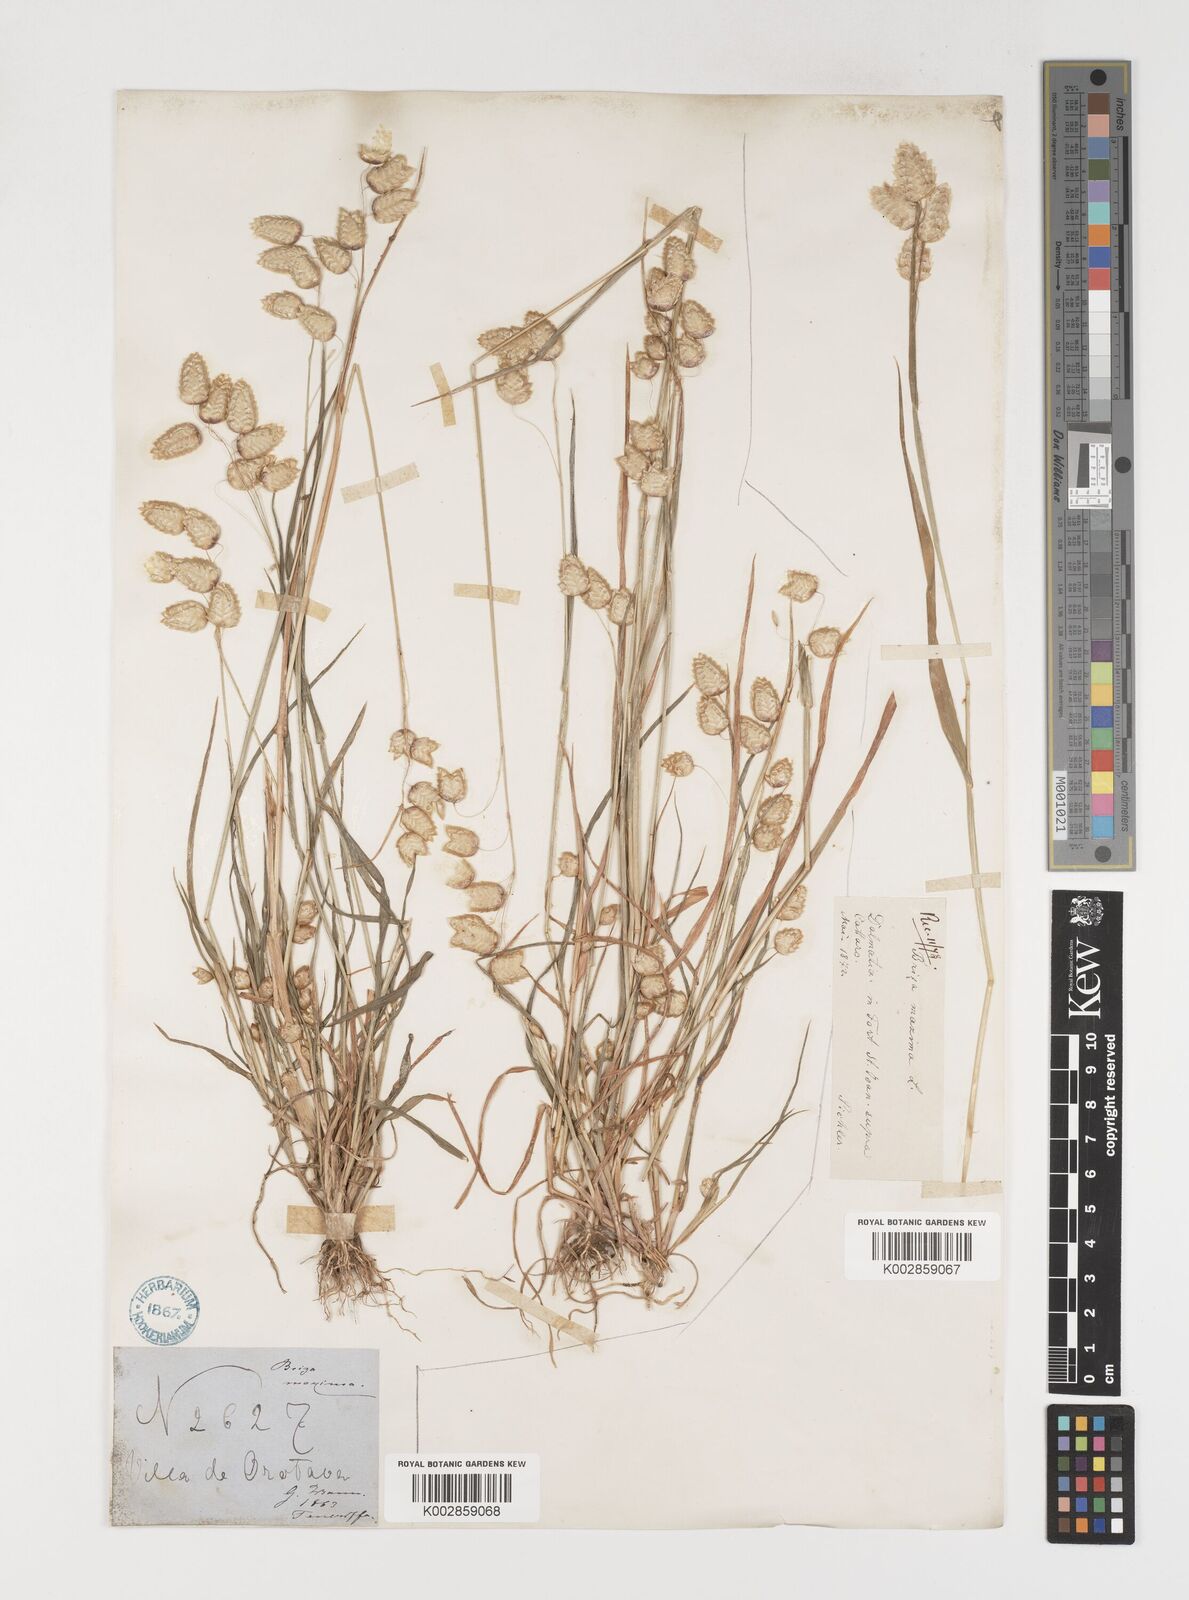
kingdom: Plantae
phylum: Tracheophyta
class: Liliopsida
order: Poales
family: Poaceae
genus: Briza
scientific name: Briza maxima
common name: Big quakinggrass
